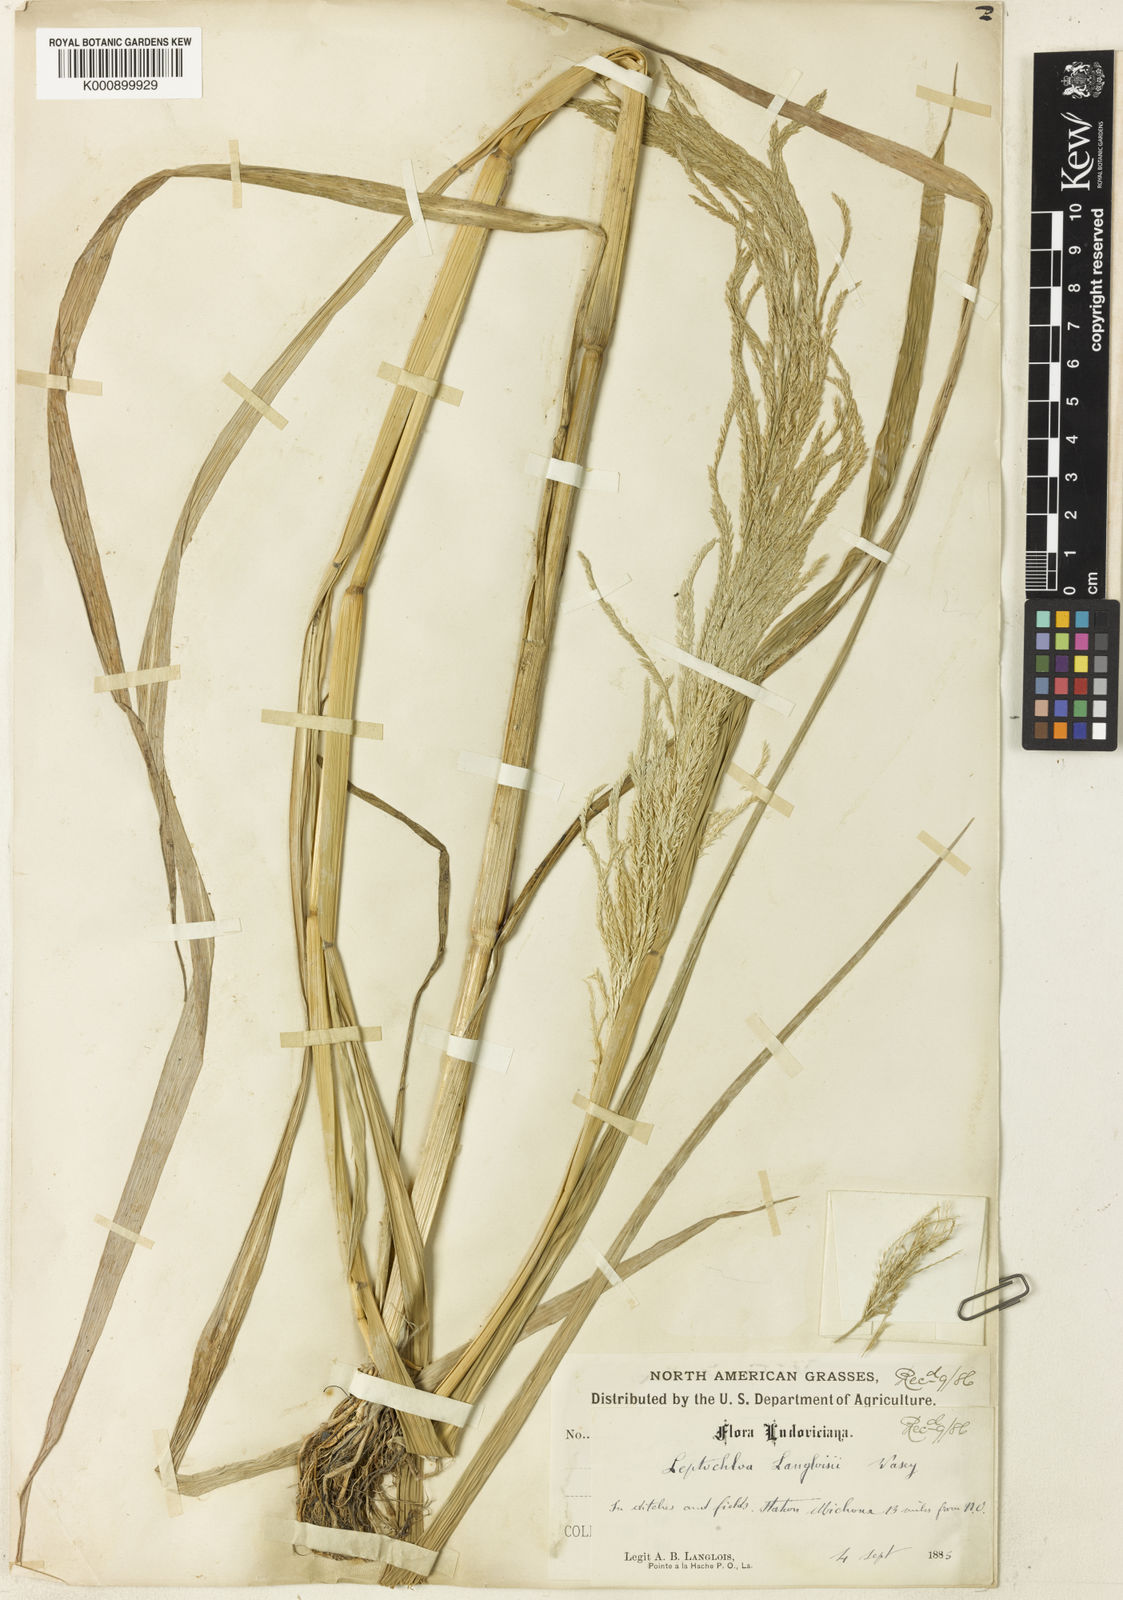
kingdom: Plantae
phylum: Tracheophyta
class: Liliopsida
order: Poales
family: Poaceae
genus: Leptochloa
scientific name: Leptochloa scabra
